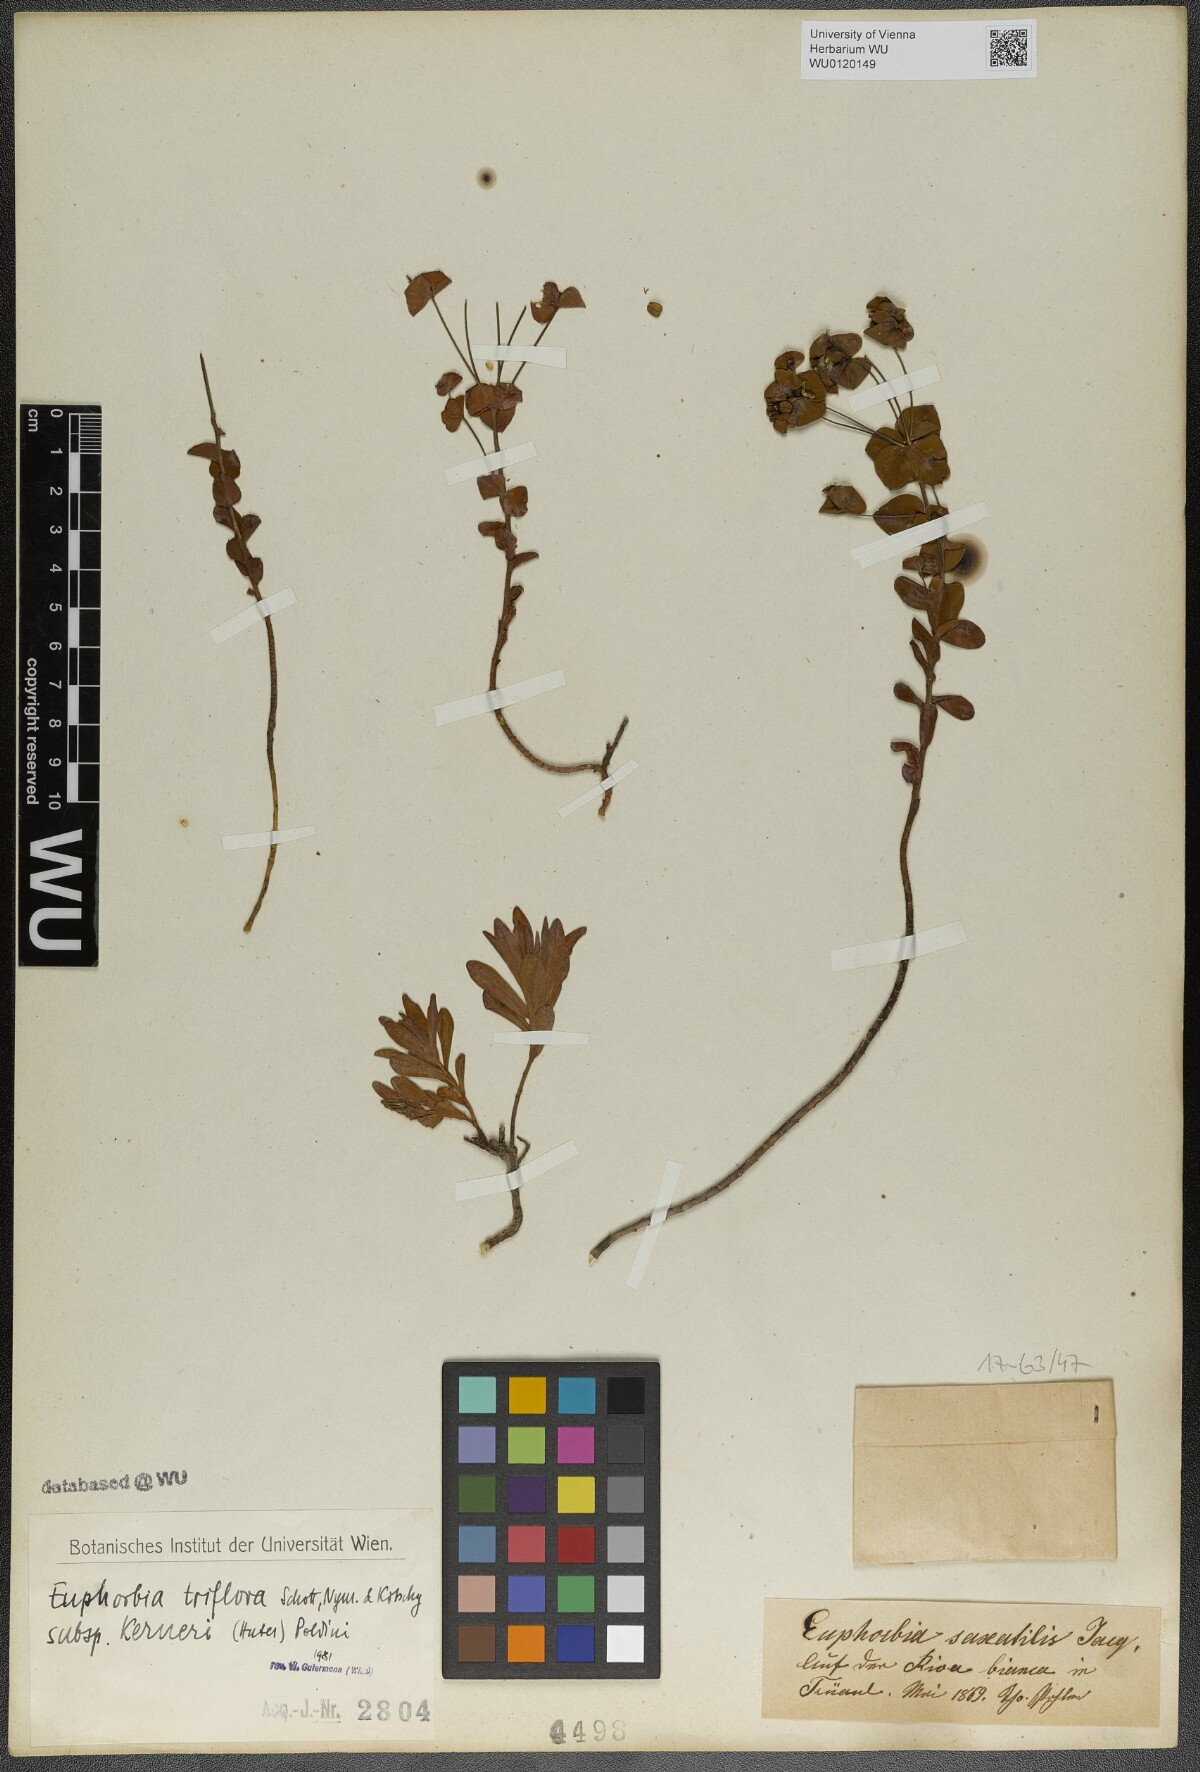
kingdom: Plantae
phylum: Tracheophyta
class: Magnoliopsida
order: Malpighiales
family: Euphorbiaceae
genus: Euphorbia
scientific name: Euphorbia kerneri
